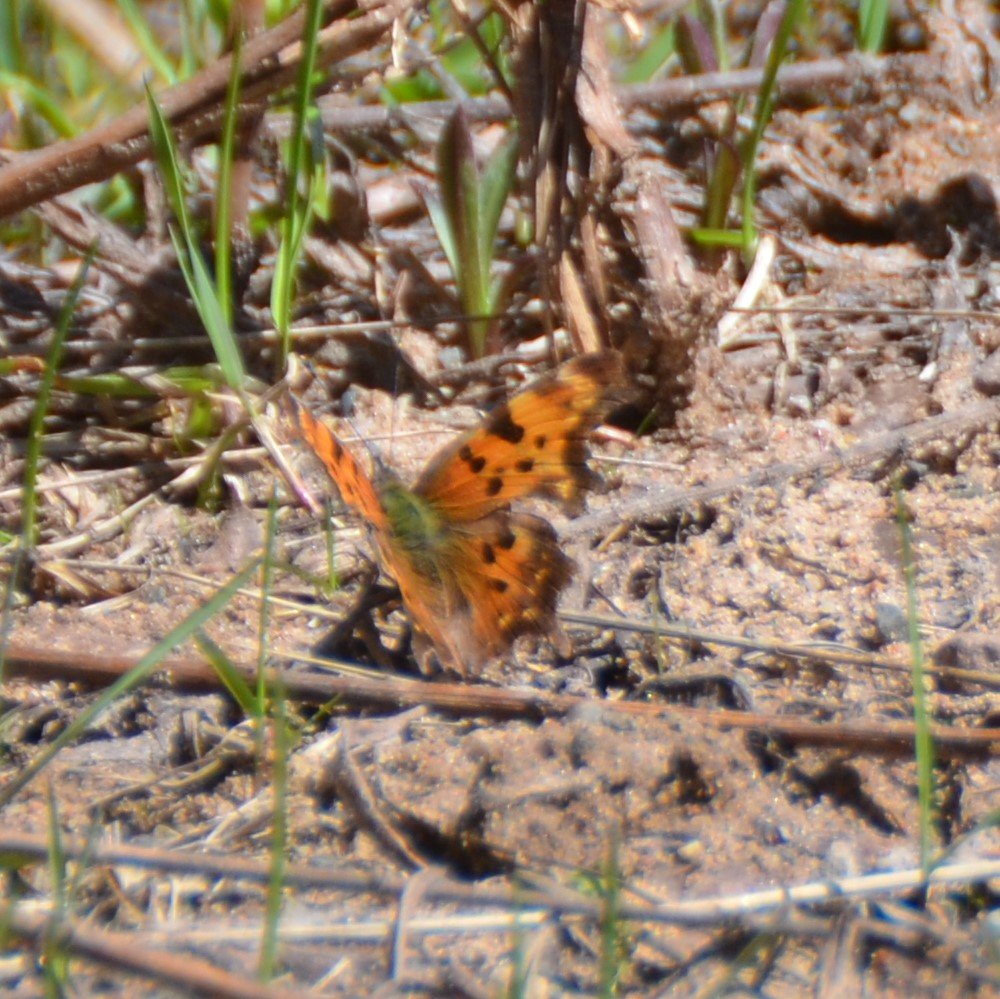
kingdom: Animalia
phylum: Arthropoda
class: Insecta
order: Lepidoptera
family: Nymphalidae
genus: Polygonia
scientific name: Polygonia faunus
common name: Green Comma
